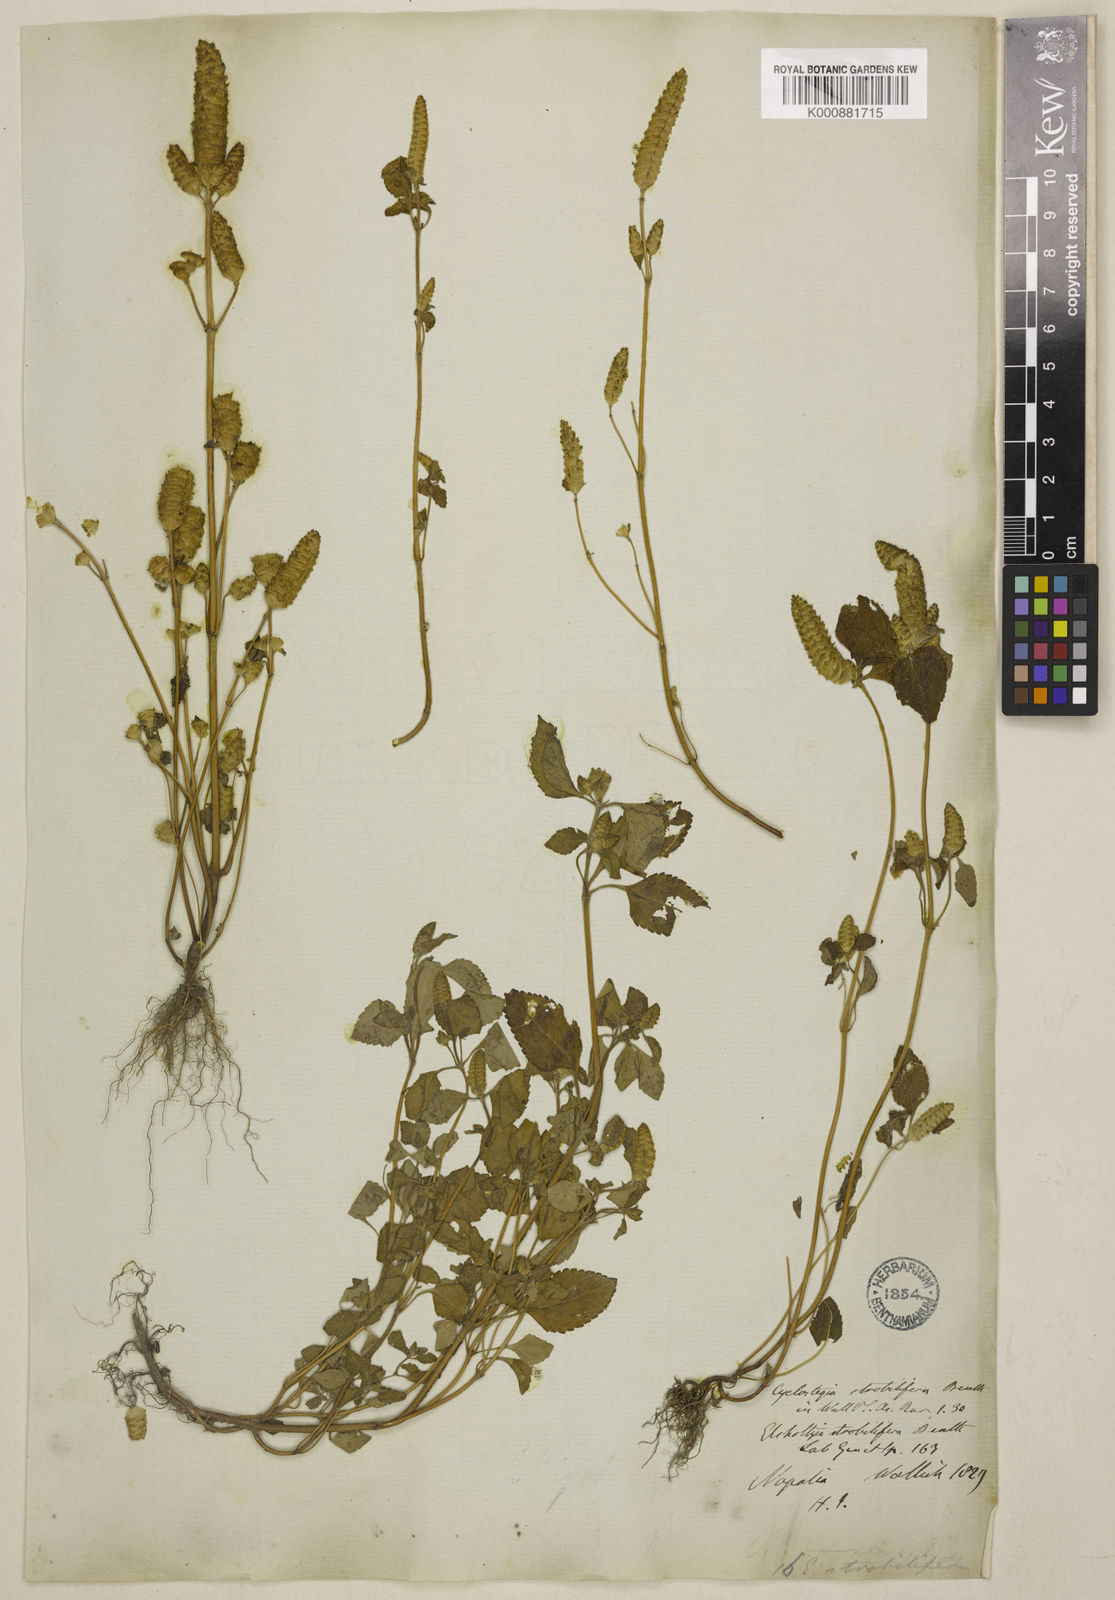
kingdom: Plantae
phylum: Tracheophyta
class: Magnoliopsida
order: Lamiales
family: Lamiaceae
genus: Elsholtzia
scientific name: Elsholtzia strobilifera
